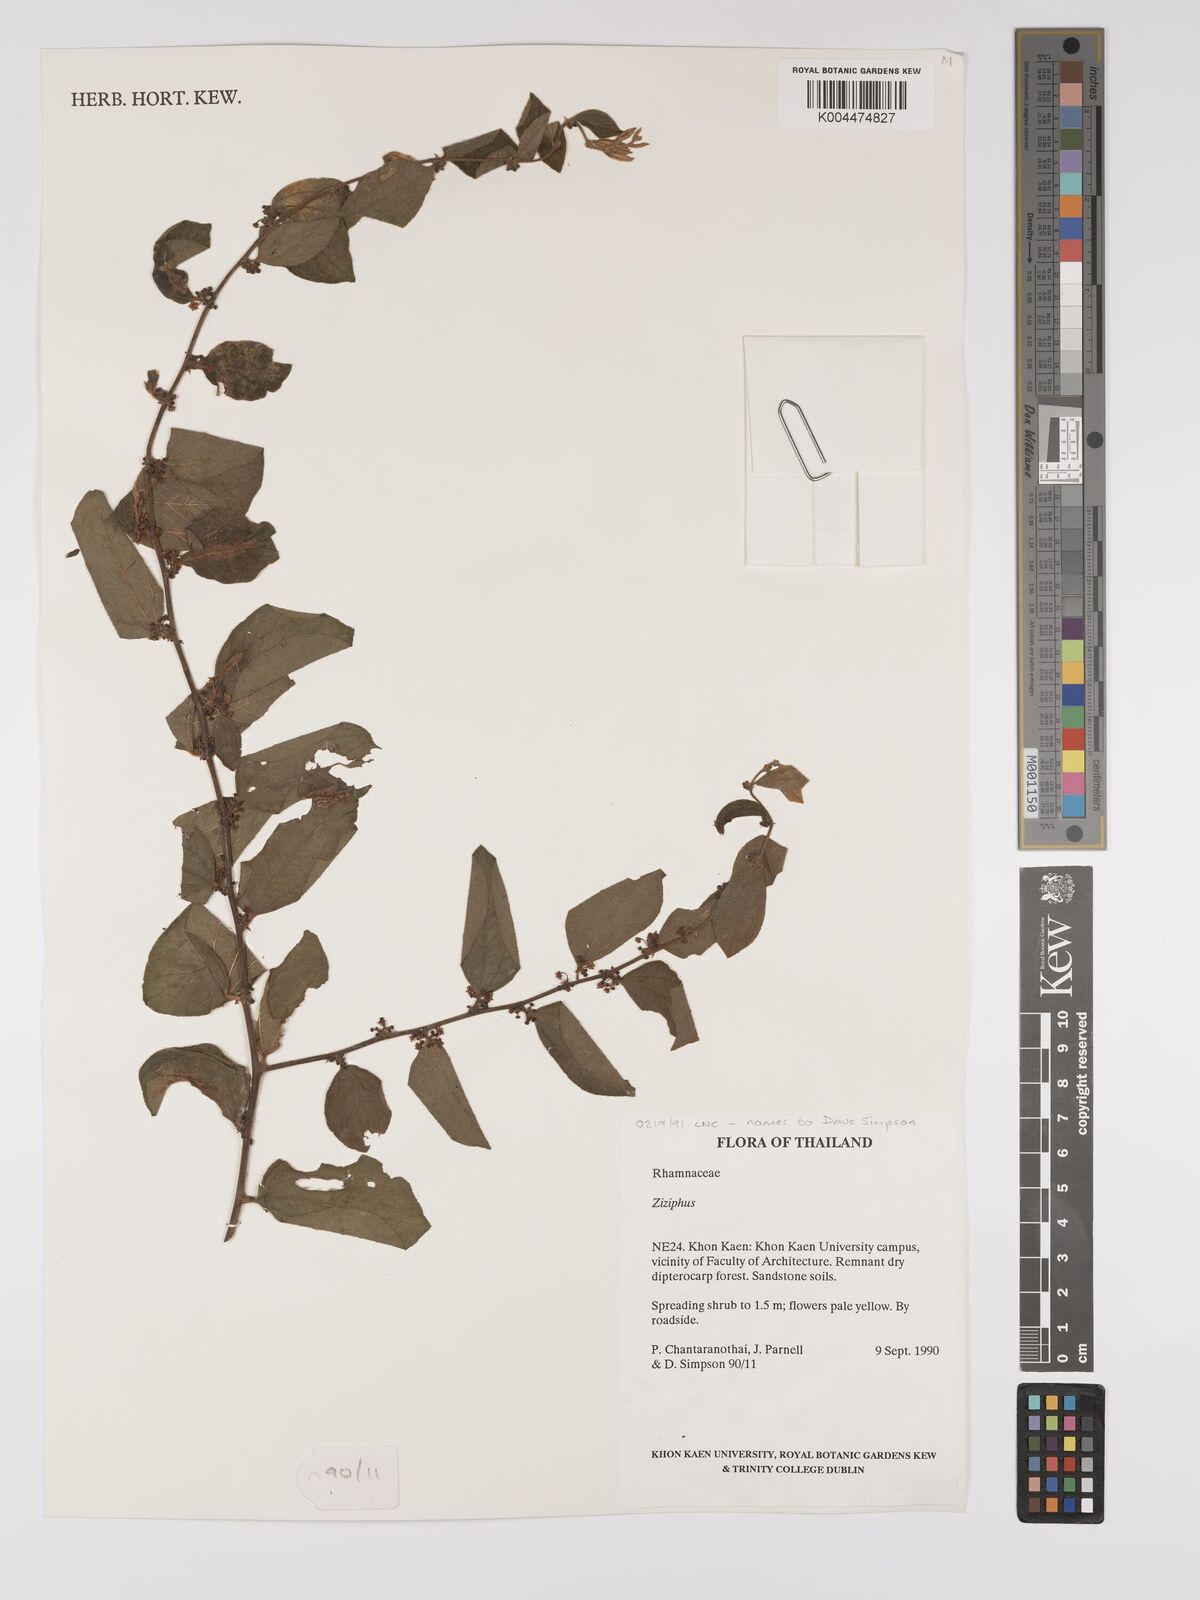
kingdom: Plantae
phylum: Tracheophyta
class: Magnoliopsida
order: Rosales
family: Rhamnaceae
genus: Ziziphus
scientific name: Ziziphus oenopolia
